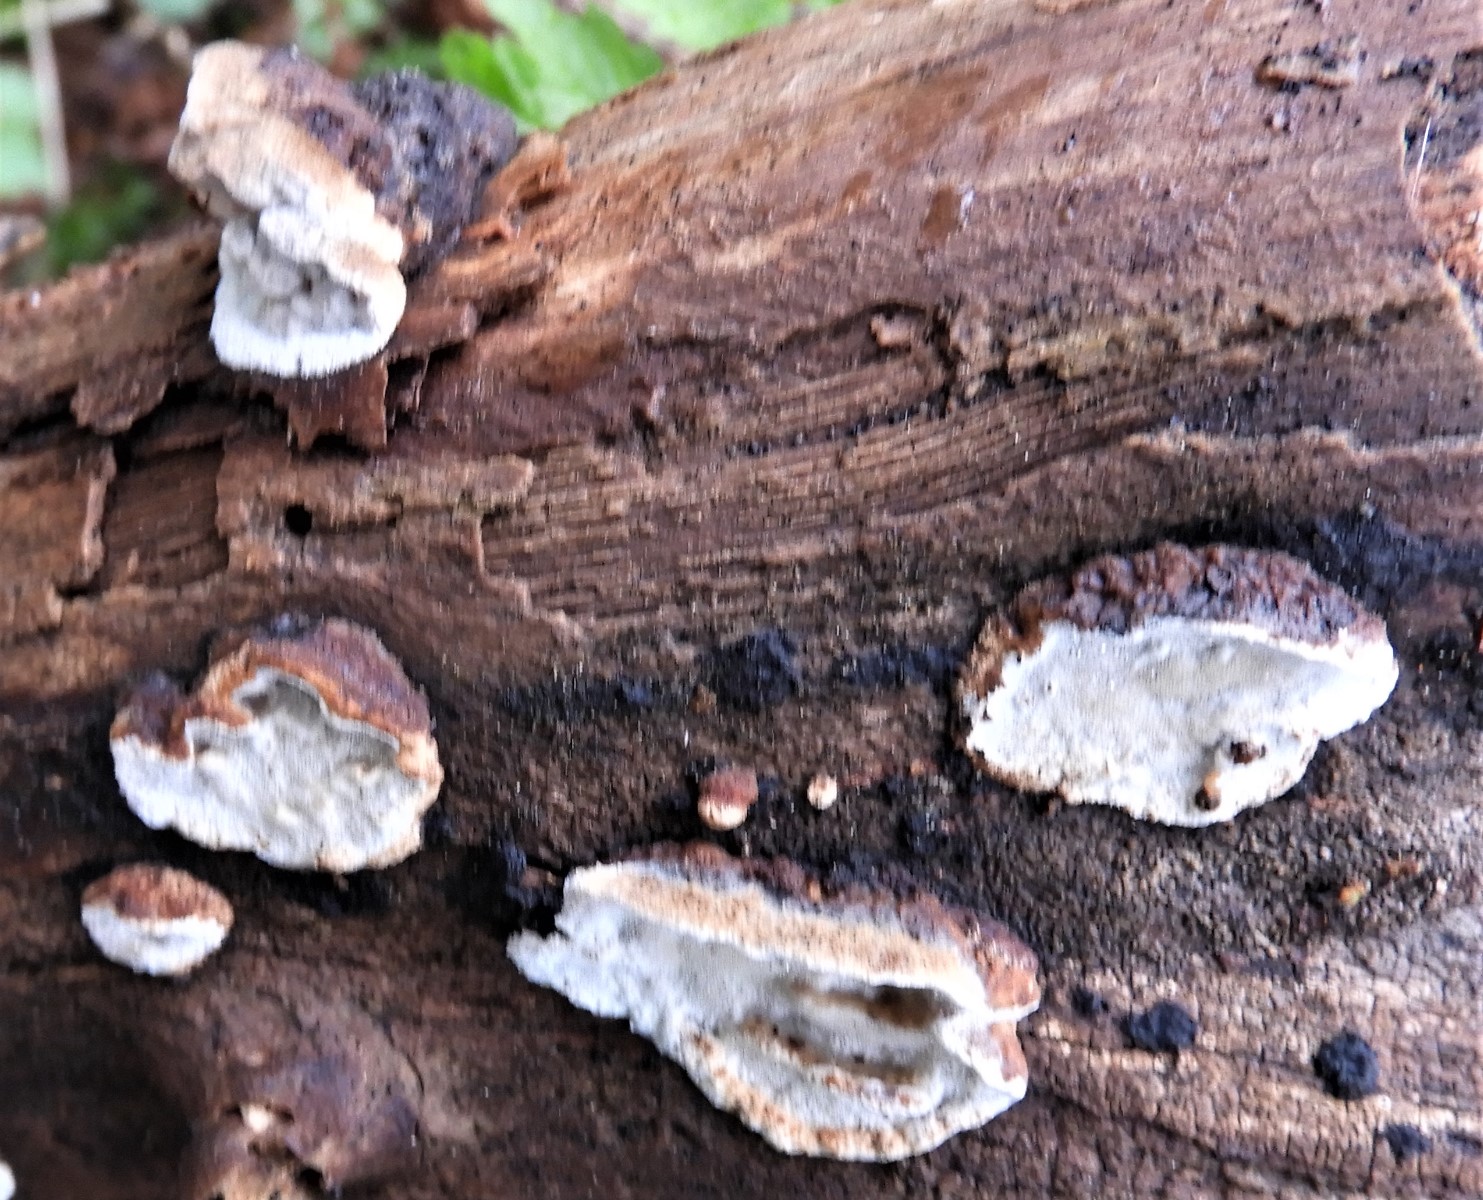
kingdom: Fungi
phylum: Basidiomycota
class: Agaricomycetes
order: Polyporales
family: Incrustoporiaceae
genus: Skeletocutis
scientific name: Skeletocutis nemoralis
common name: stor krystalporesvamp
